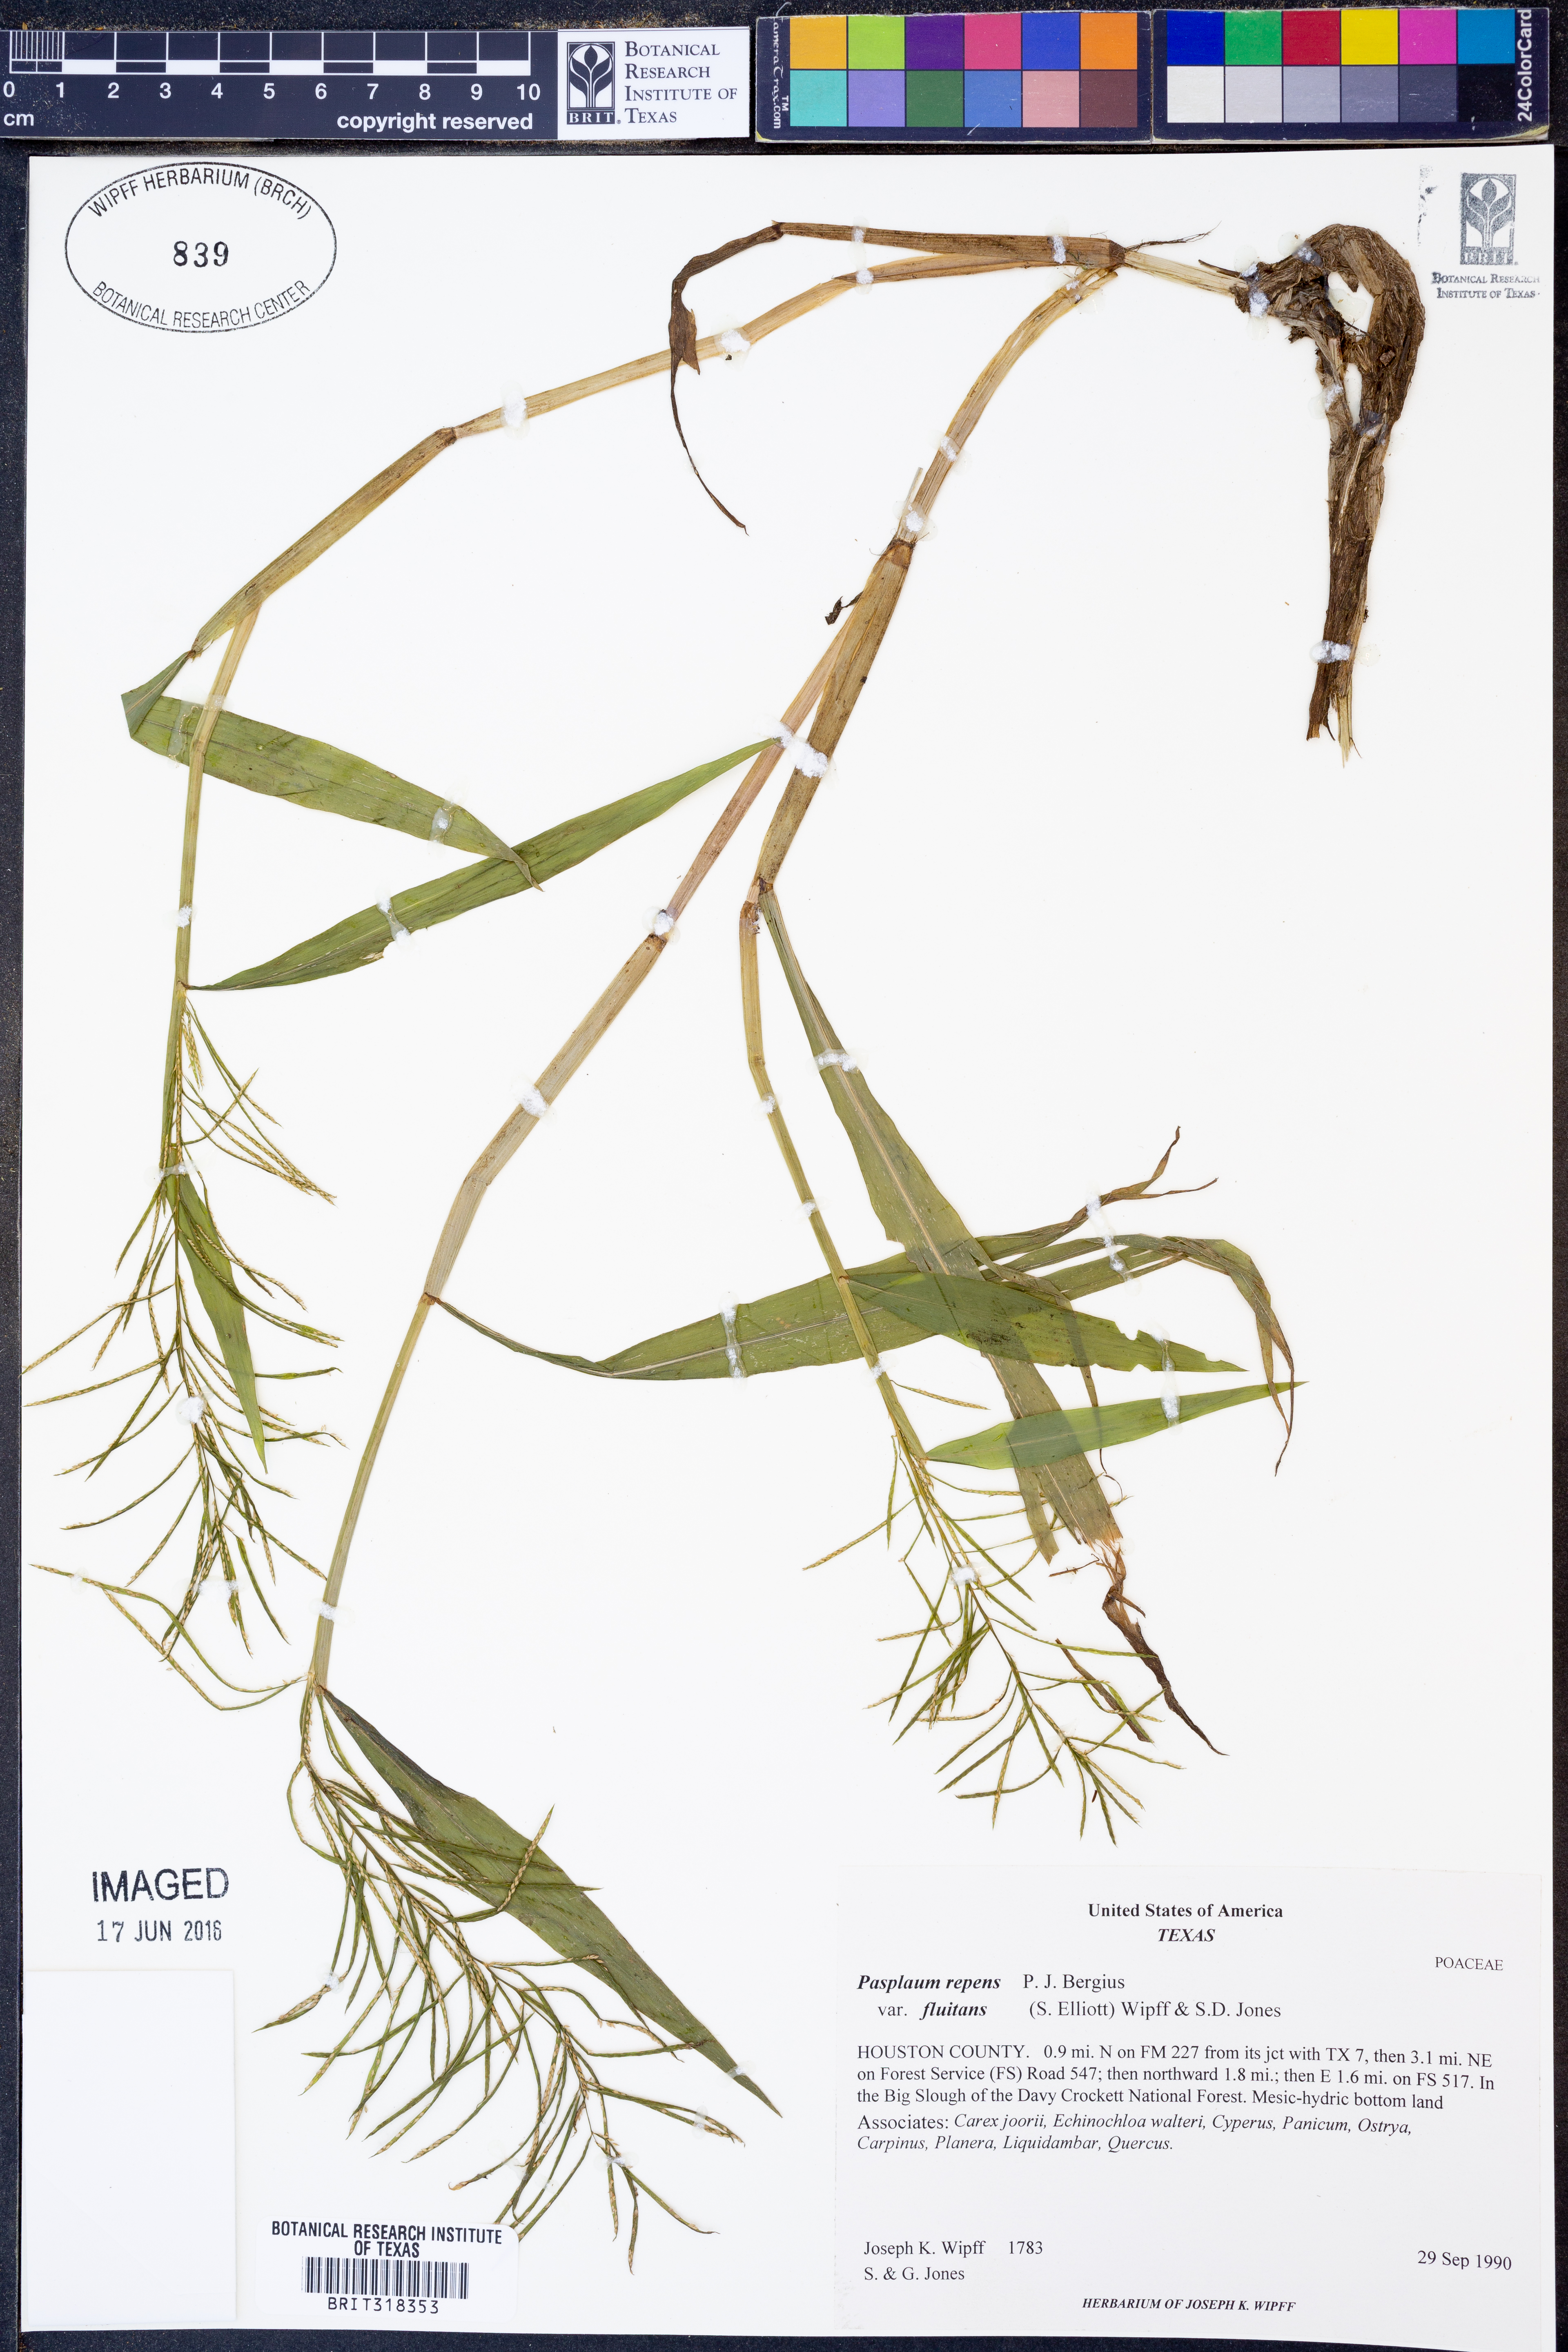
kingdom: Plantae
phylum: Tracheophyta
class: Liliopsida
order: Poales
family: Poaceae
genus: Paspalum
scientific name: Paspalum repens
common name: Water paspalum
